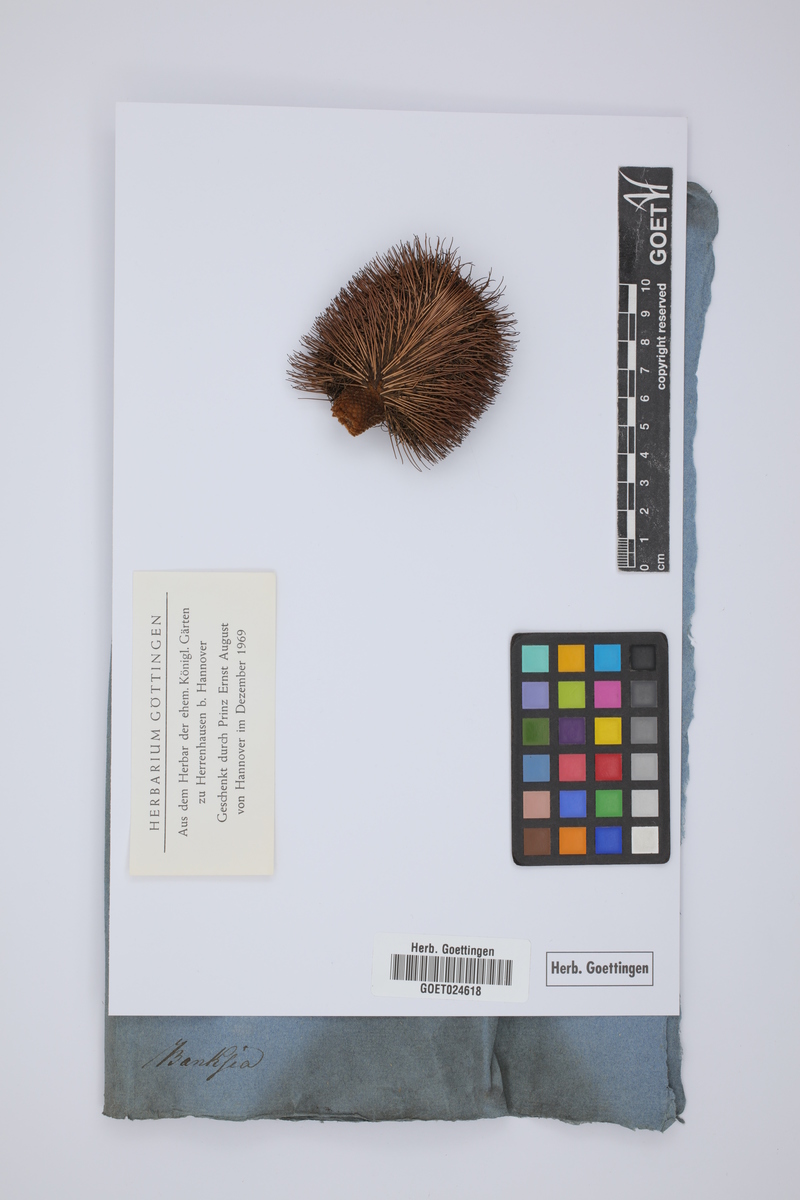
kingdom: Plantae
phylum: Tracheophyta
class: Magnoliopsida
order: Proteales
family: Proteaceae
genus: Banksia
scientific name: Banksia
